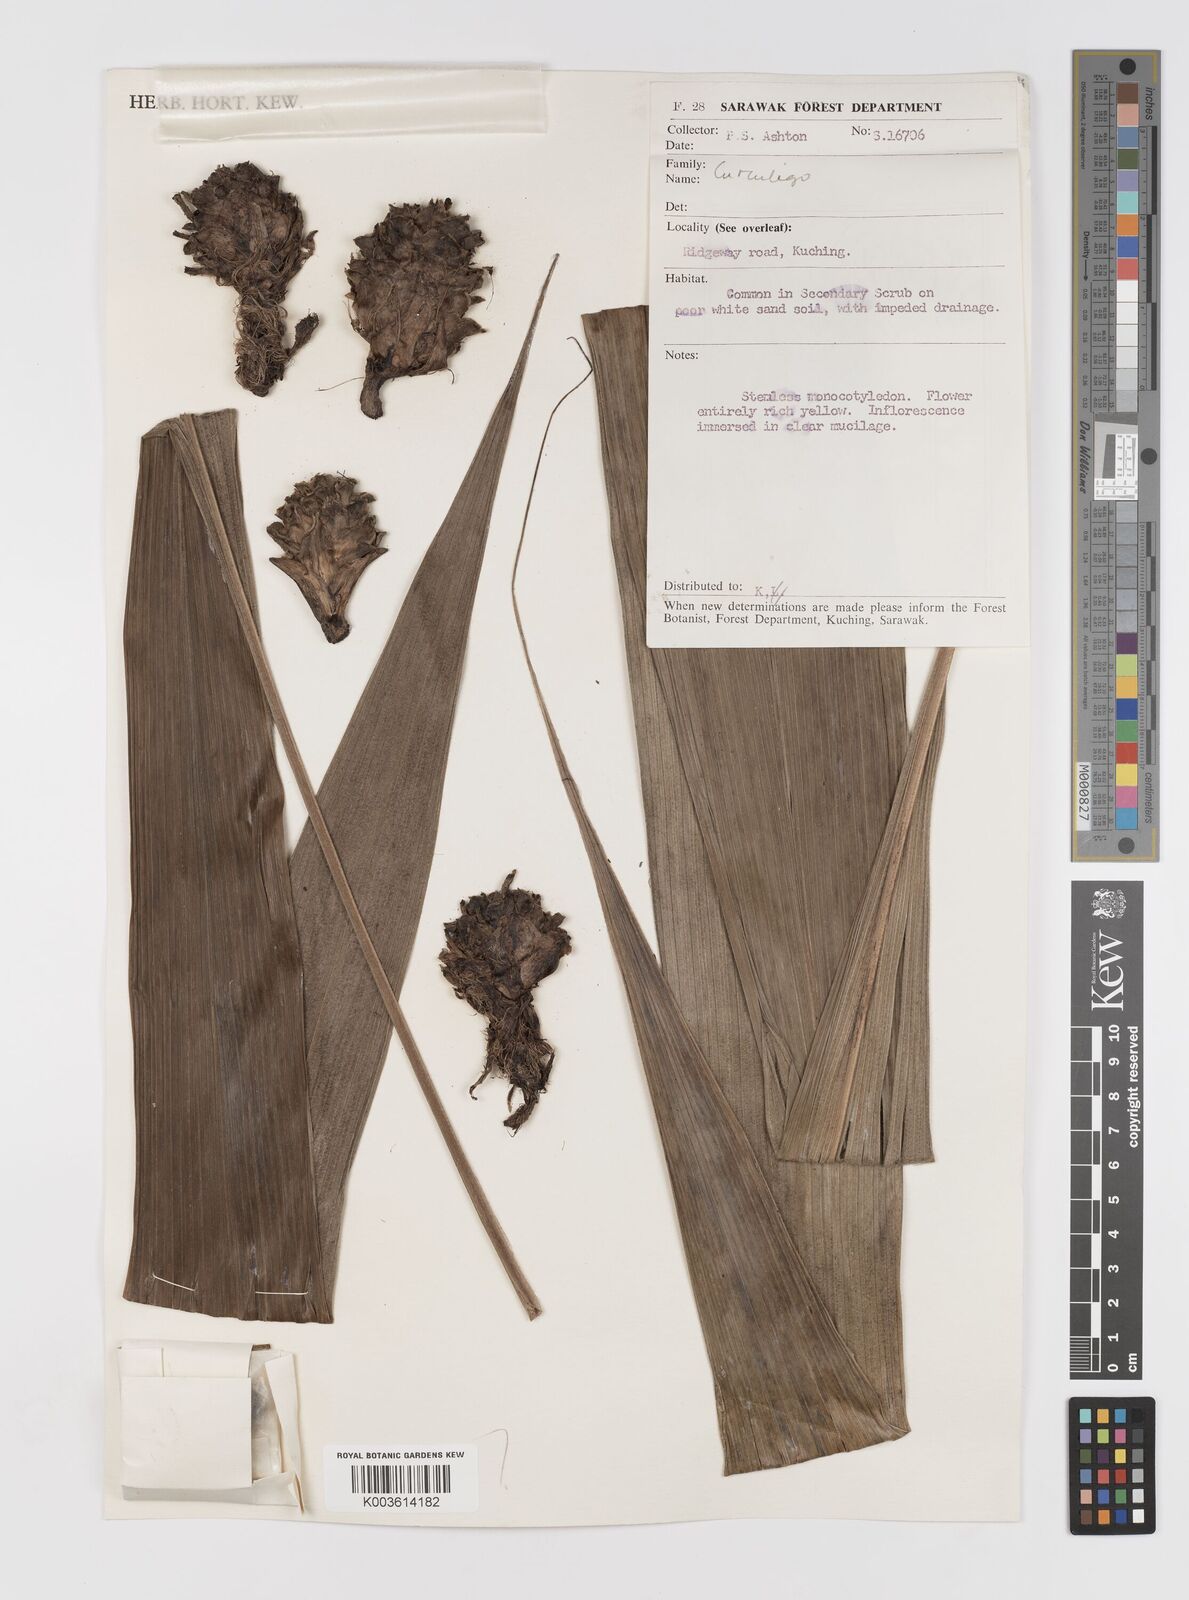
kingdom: Plantae
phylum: Tracheophyta
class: Liliopsida
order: Asparagales
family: Hypoxidaceae
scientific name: Hypoxidaceae
